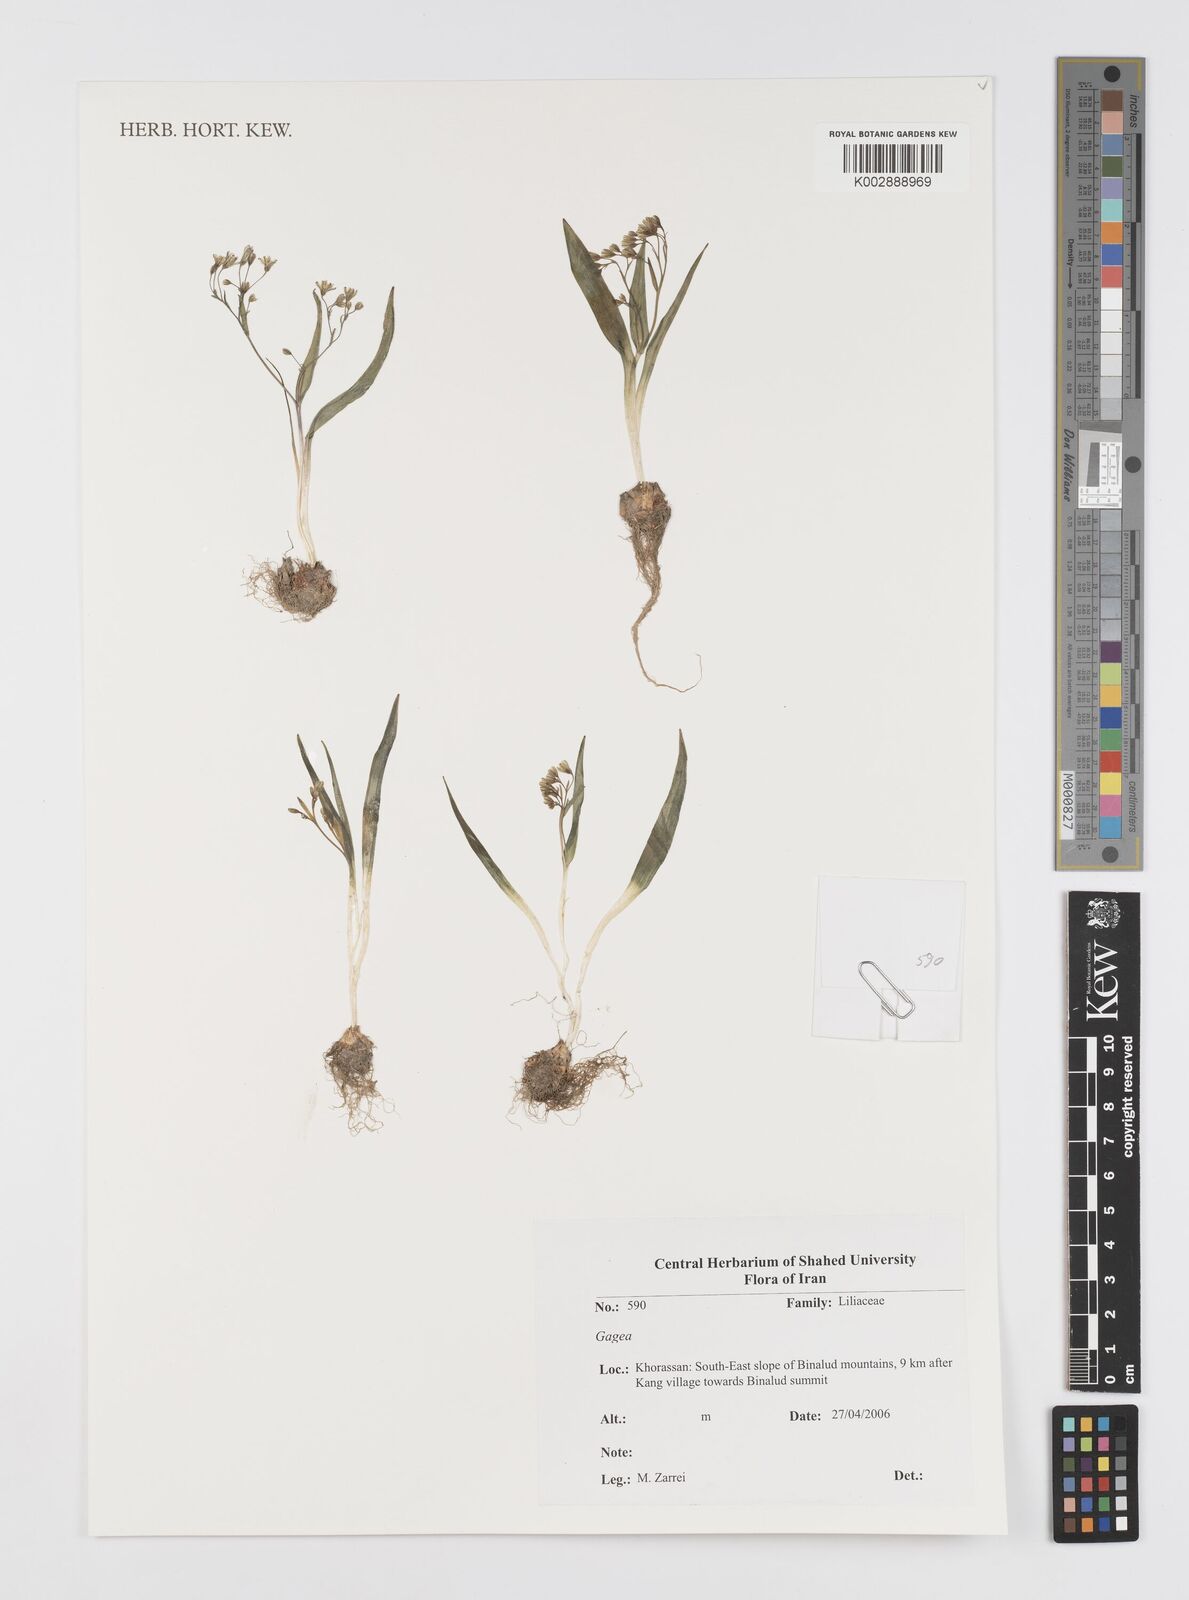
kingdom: Plantae
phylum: Tracheophyta
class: Liliopsida
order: Liliales
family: Liliaceae
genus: Gagea
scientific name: Gagea
